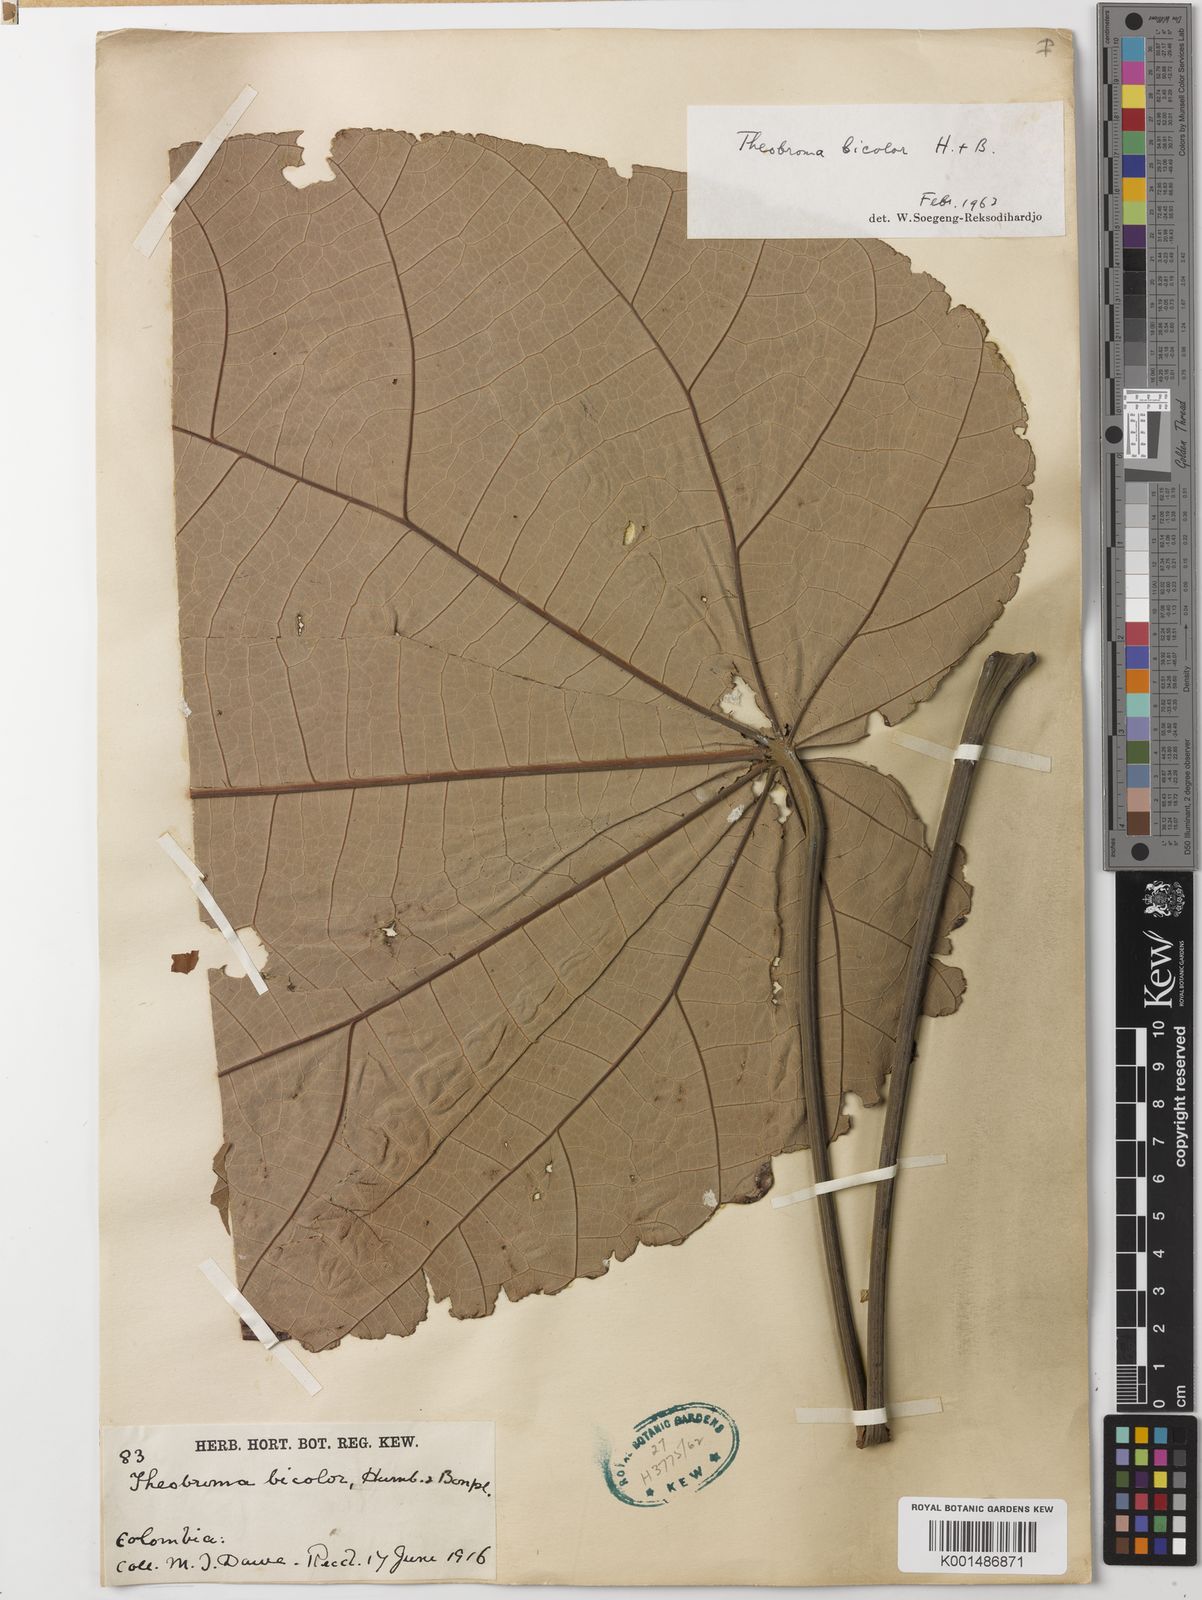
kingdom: Plantae
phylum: Tracheophyta
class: Magnoliopsida
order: Malvales
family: Malvaceae
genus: Theobroma
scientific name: Theobroma bicolor
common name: Macambo tree
